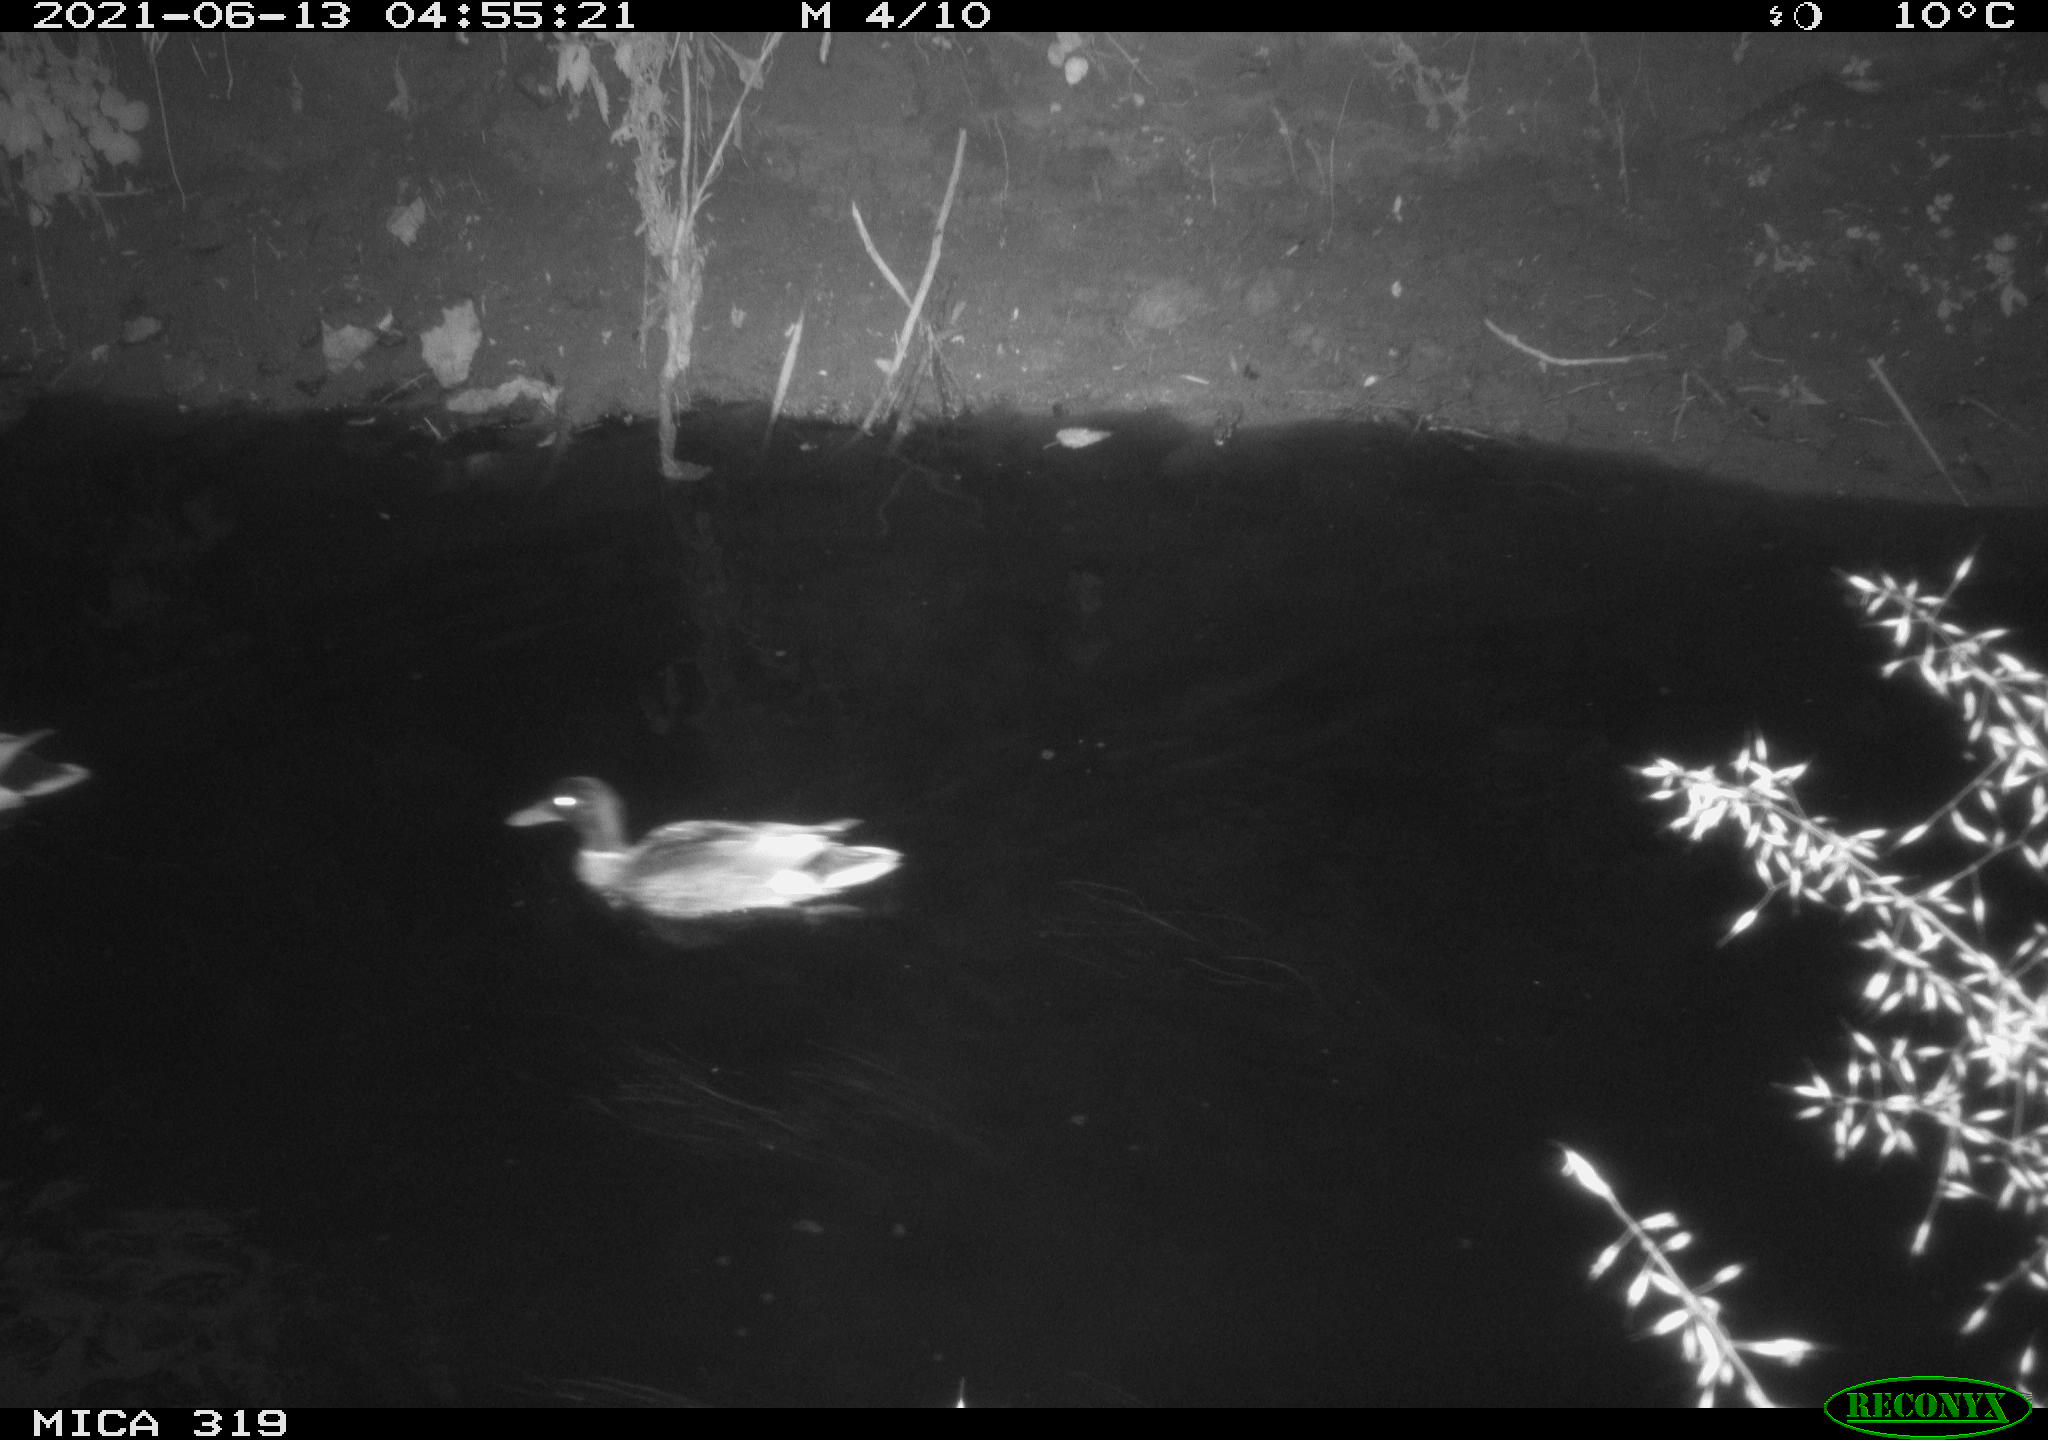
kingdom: Animalia
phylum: Chordata
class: Mammalia
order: Rodentia
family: Muridae
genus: Rattus
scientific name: Rattus norvegicus
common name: Brown rat
